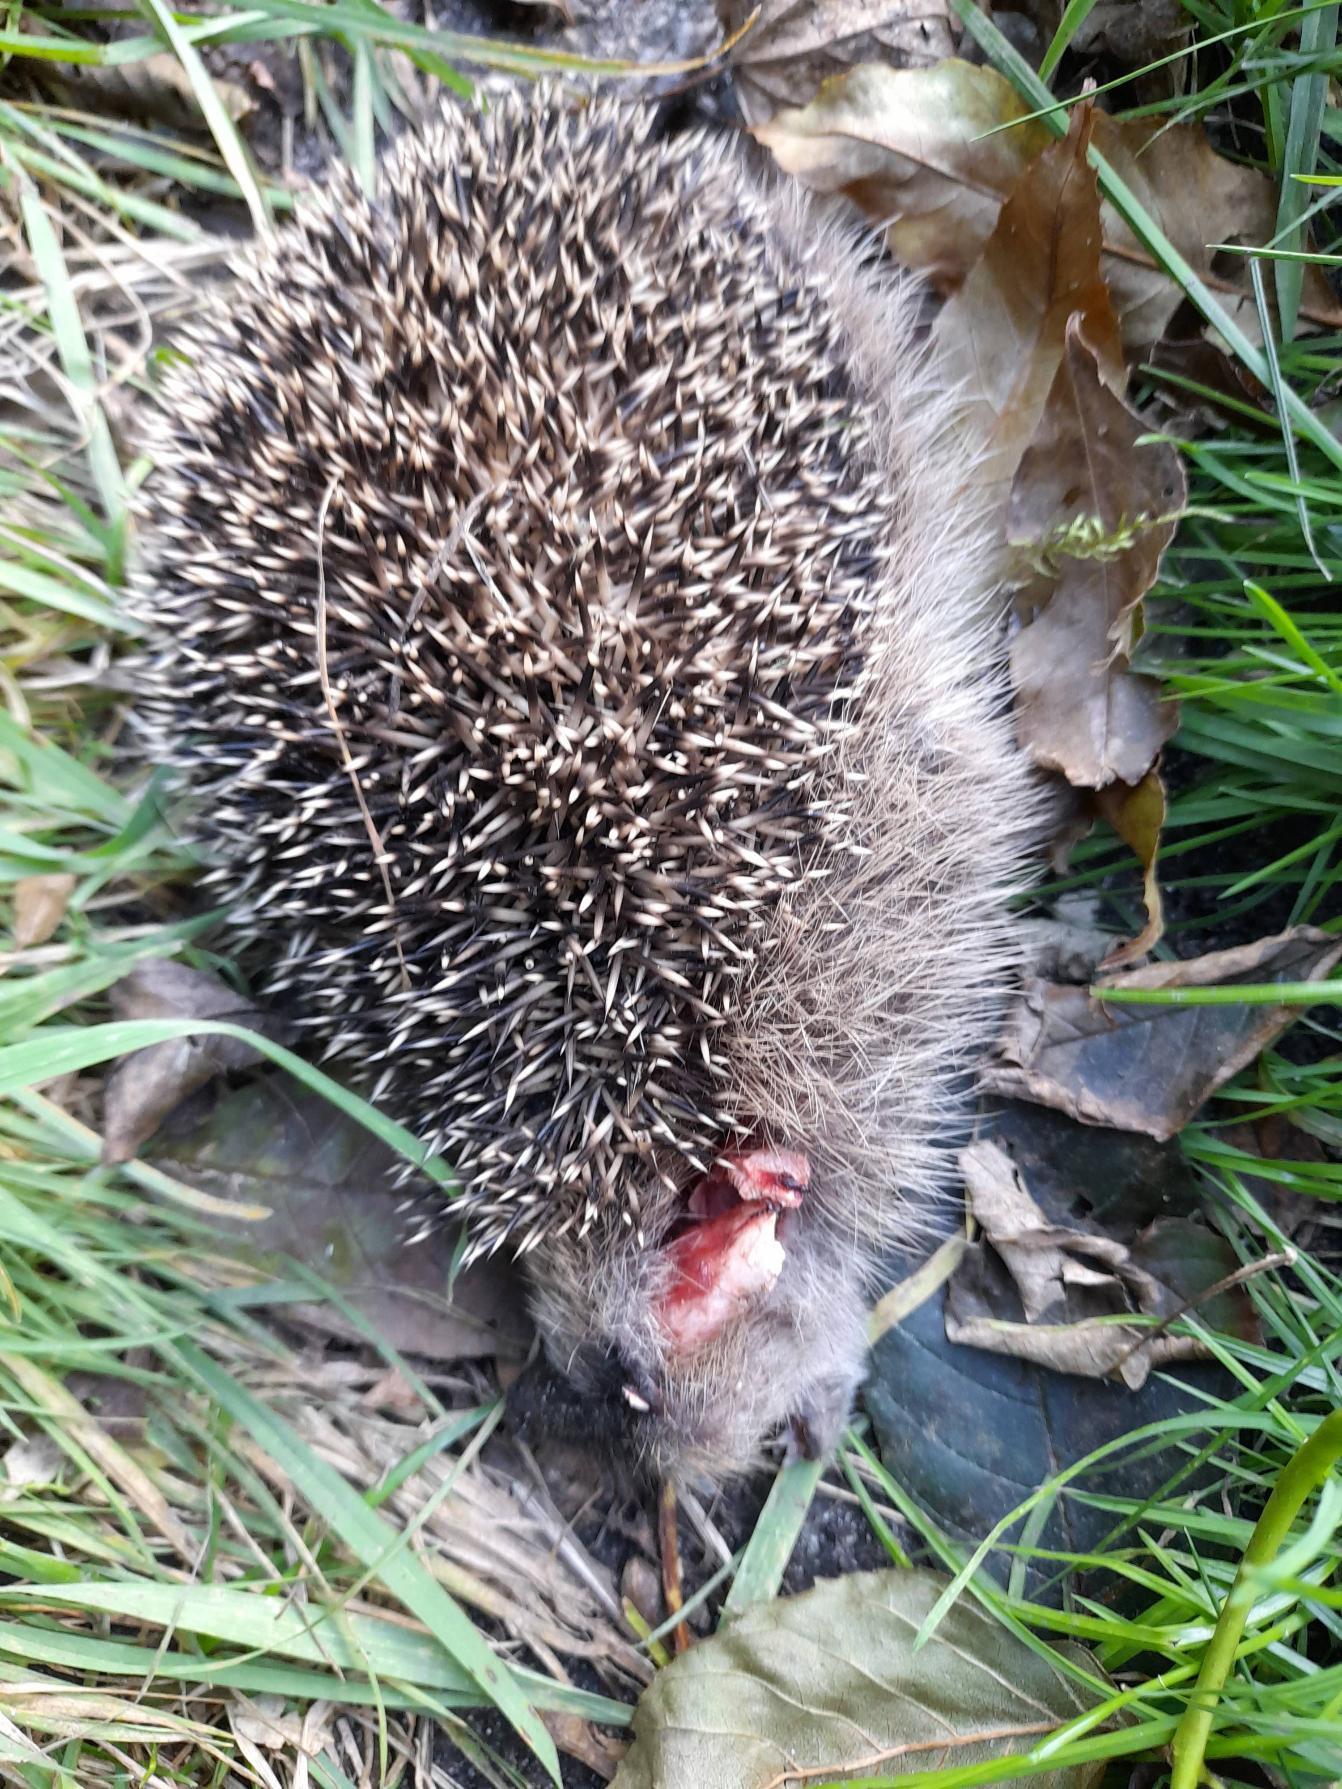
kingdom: Animalia
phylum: Chordata
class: Mammalia
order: Erinaceomorpha
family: Erinaceidae
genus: Erinaceus
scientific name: Erinaceus europaeus
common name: Pindsvin
